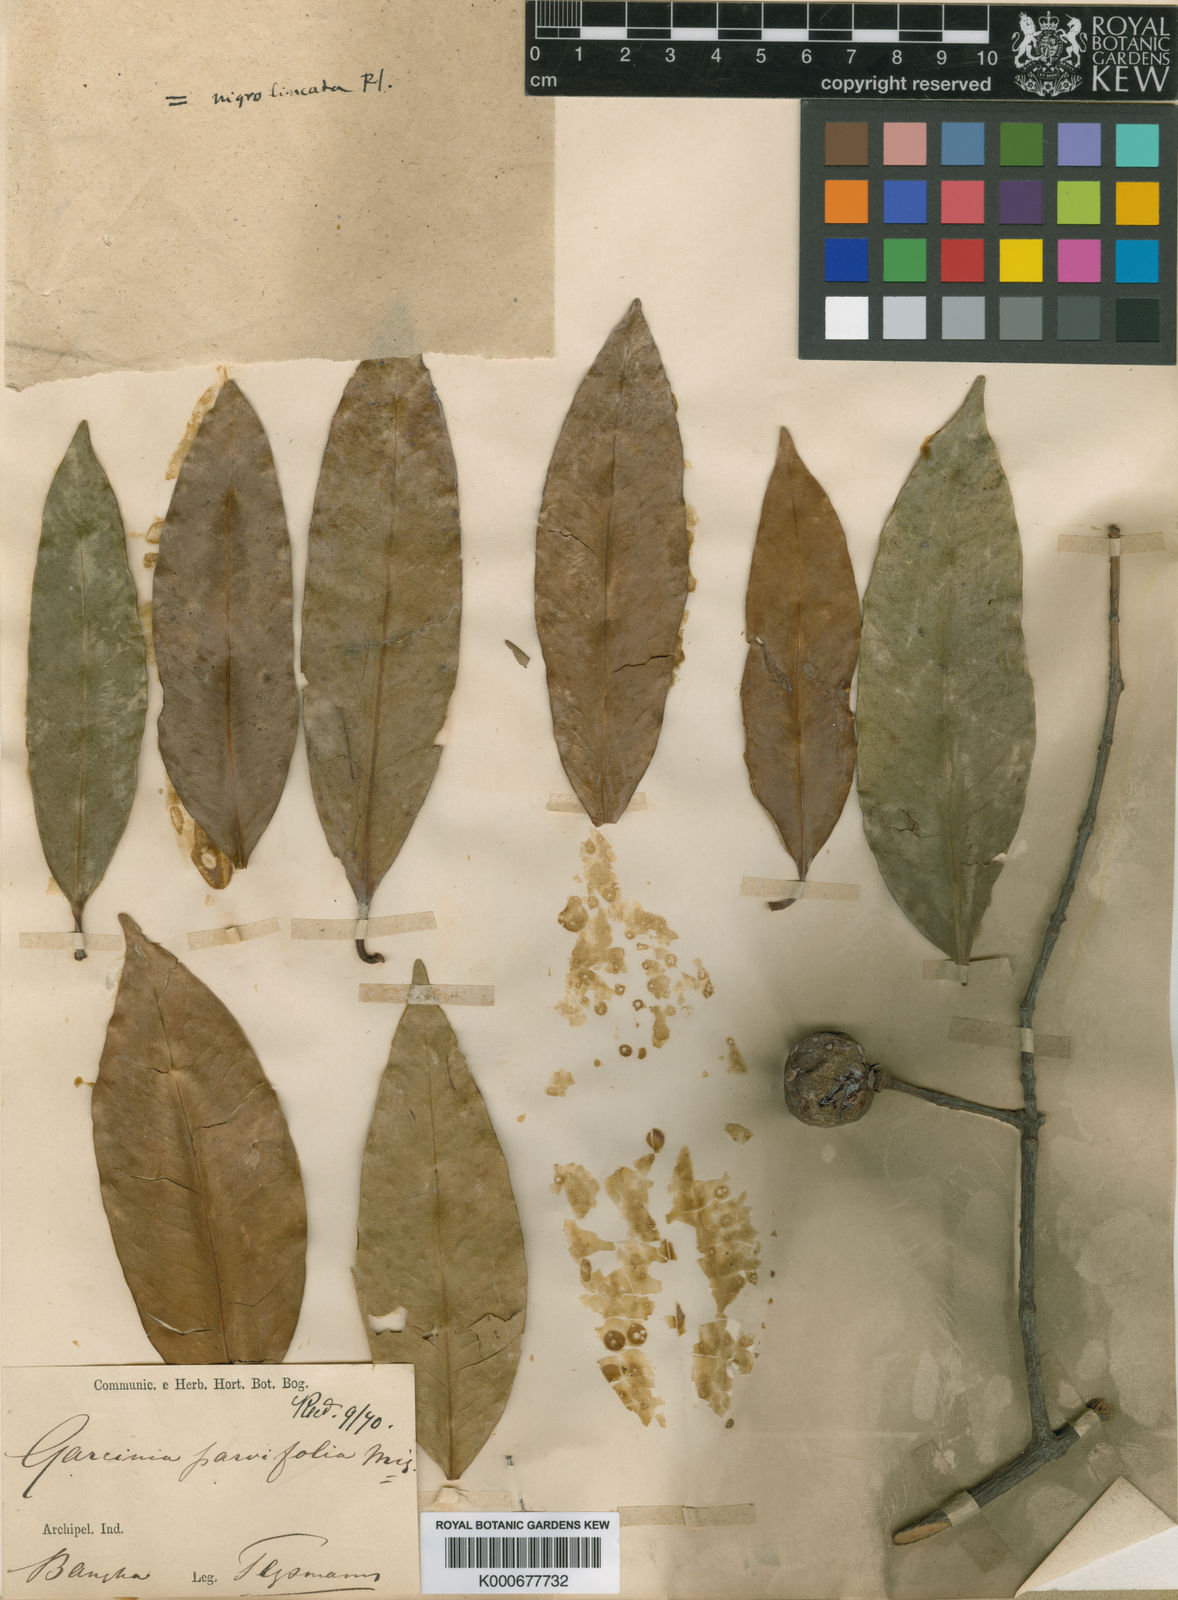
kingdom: Plantae
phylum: Tracheophyta
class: Magnoliopsida
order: Malpighiales
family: Clusiaceae
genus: Garcinia
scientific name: Garcinia parvifolia
